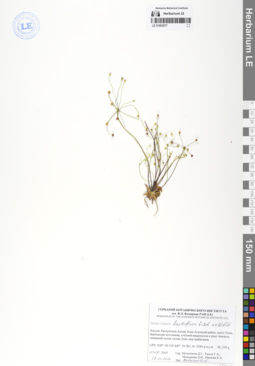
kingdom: Plantae
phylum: Tracheophyta
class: Magnoliopsida
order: Ericales
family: Primulaceae
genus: Androsace
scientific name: Androsace lactiflora
